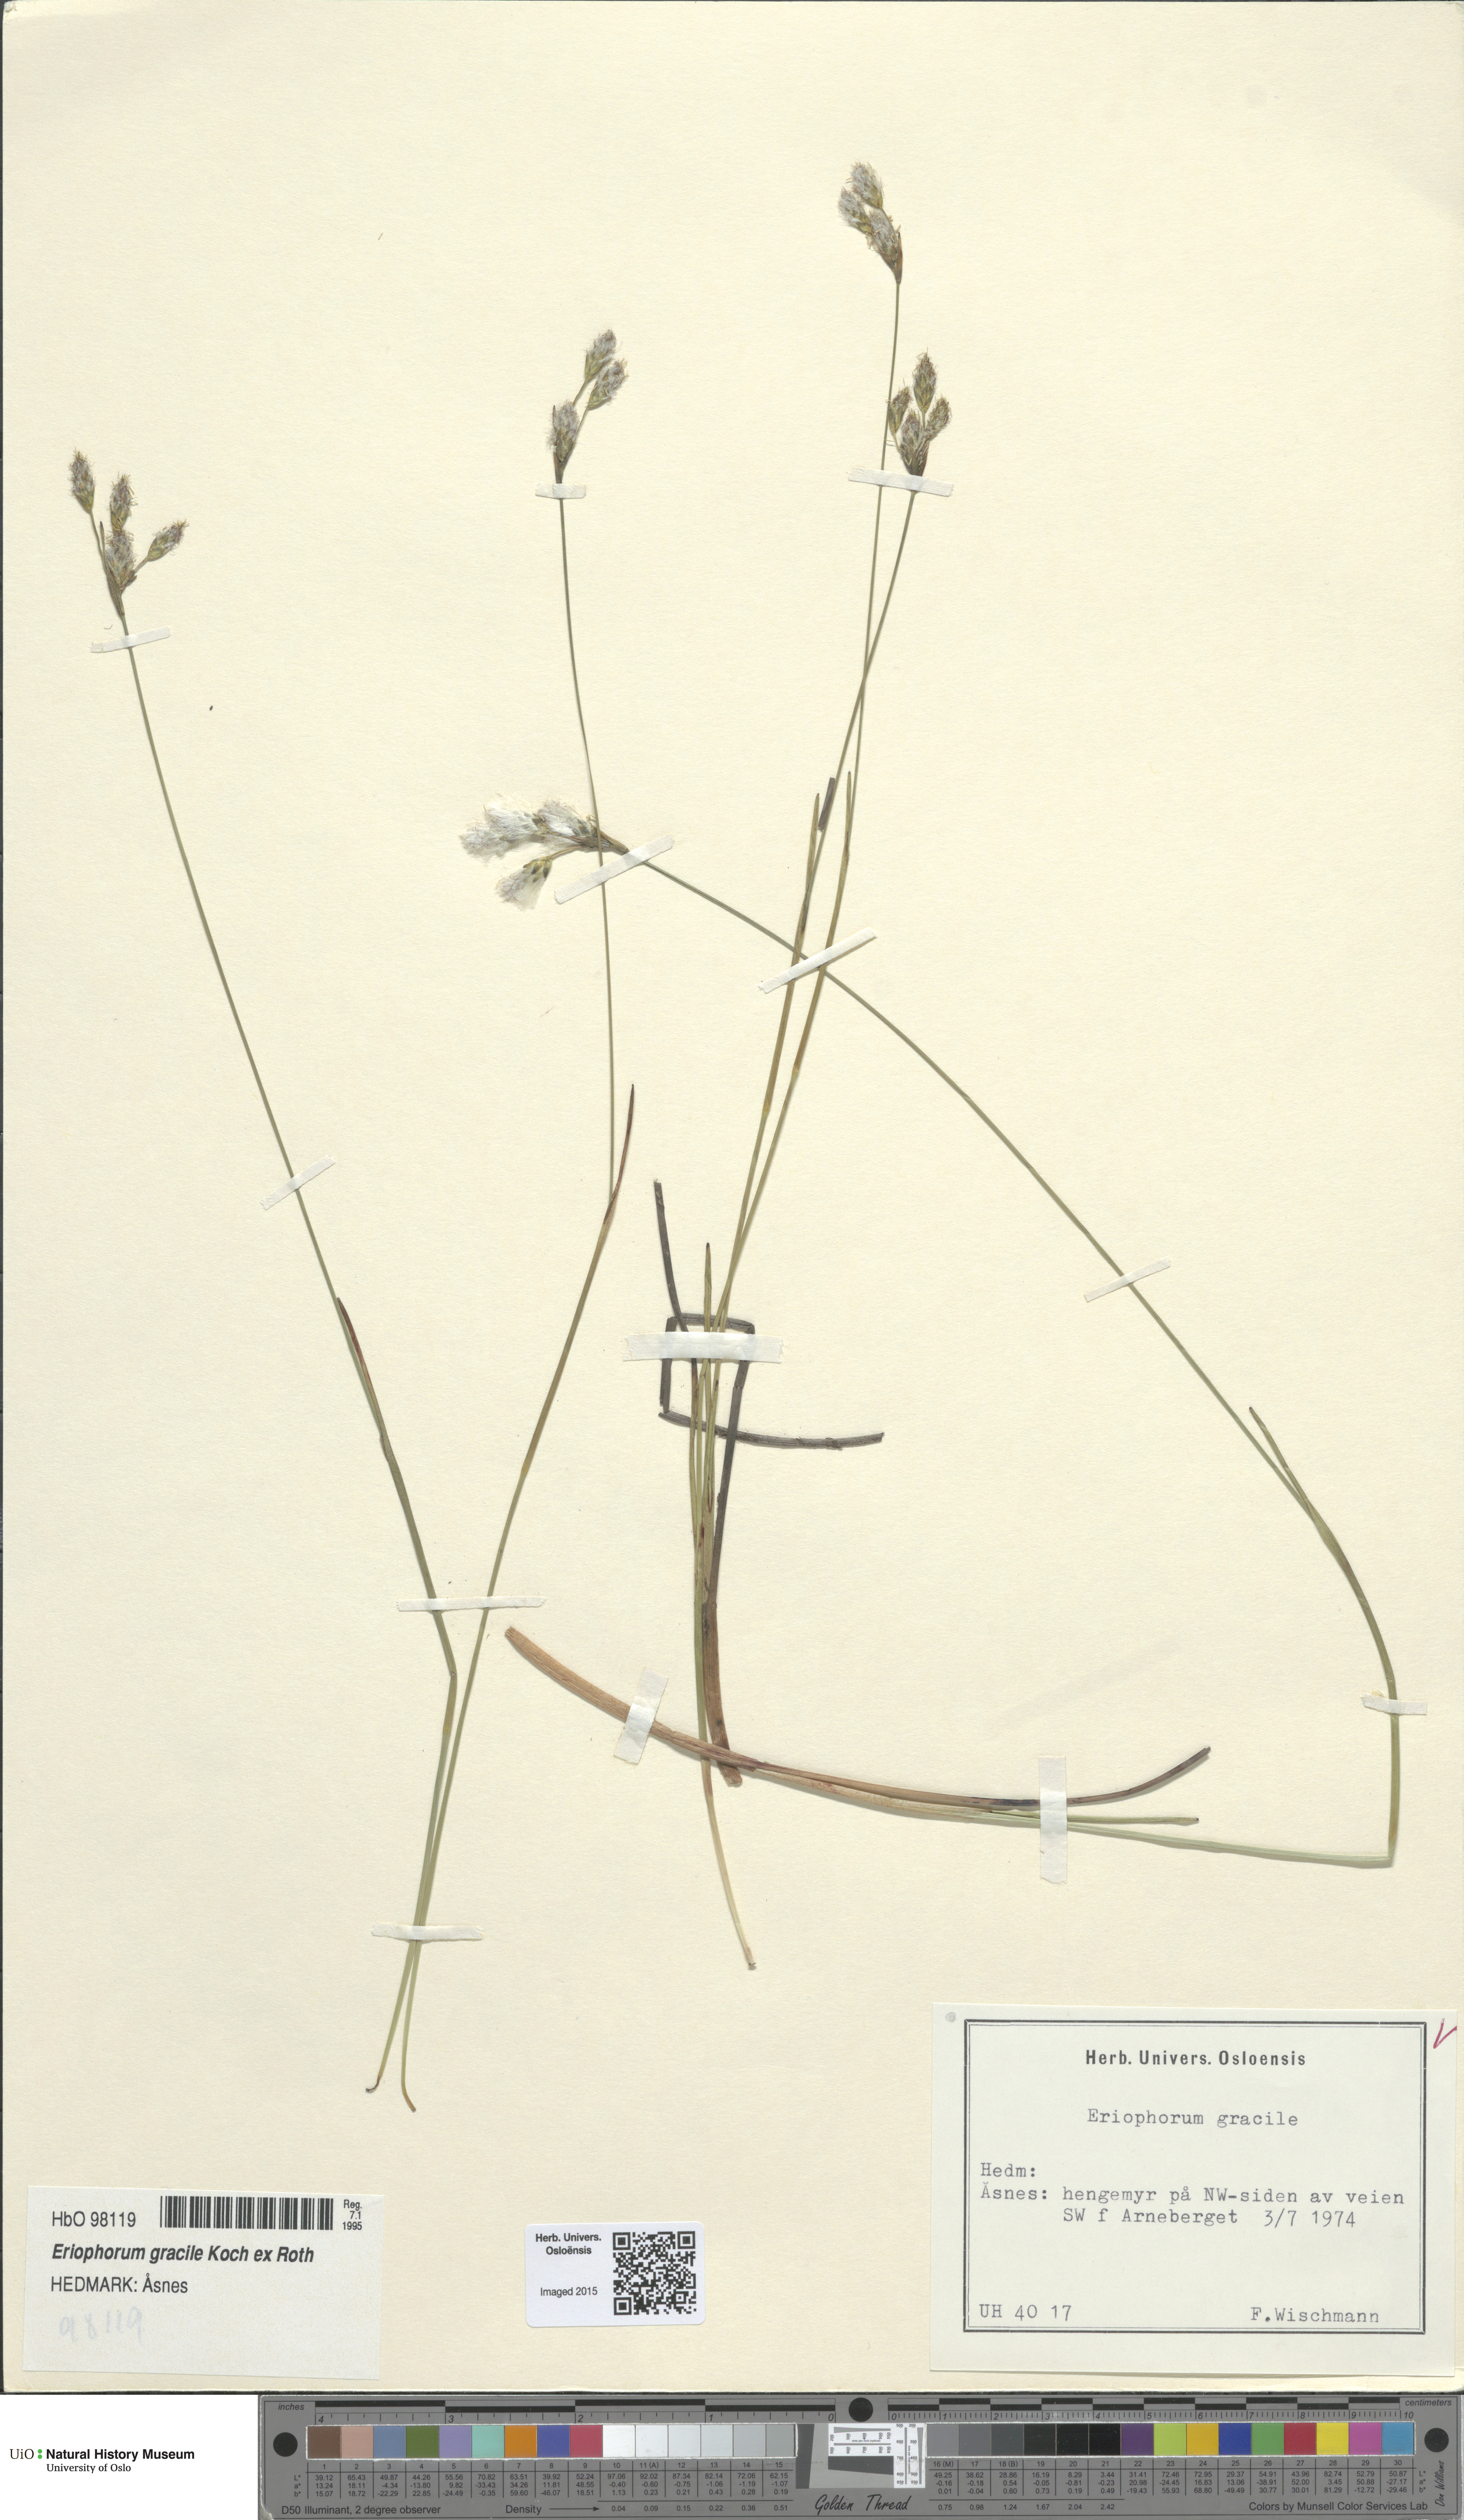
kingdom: Plantae
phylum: Tracheophyta
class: Liliopsida
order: Poales
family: Cyperaceae
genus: Eriophorum
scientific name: Eriophorum gracile
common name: Slender cottongrass
